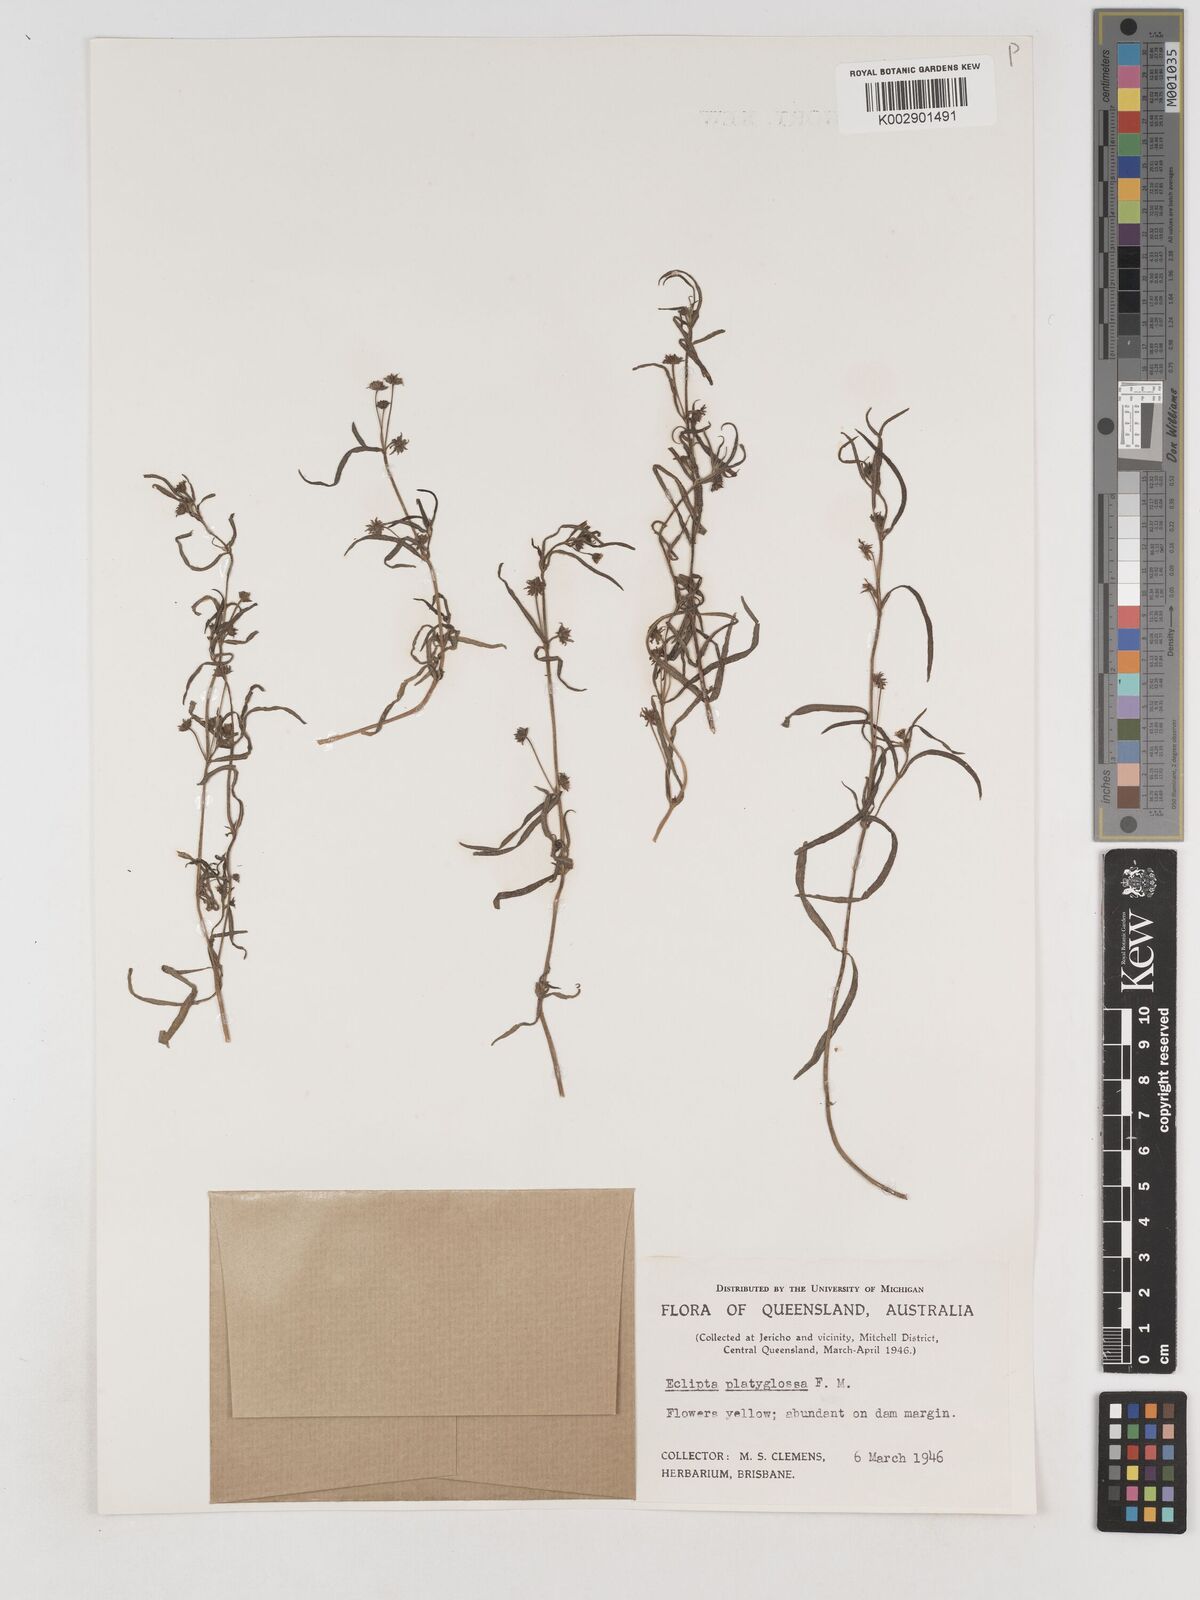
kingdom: Plantae
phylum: Tracheophyta
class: Magnoliopsida
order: Asterales
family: Asteraceae
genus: Eclipta
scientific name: Eclipta platyglossa
